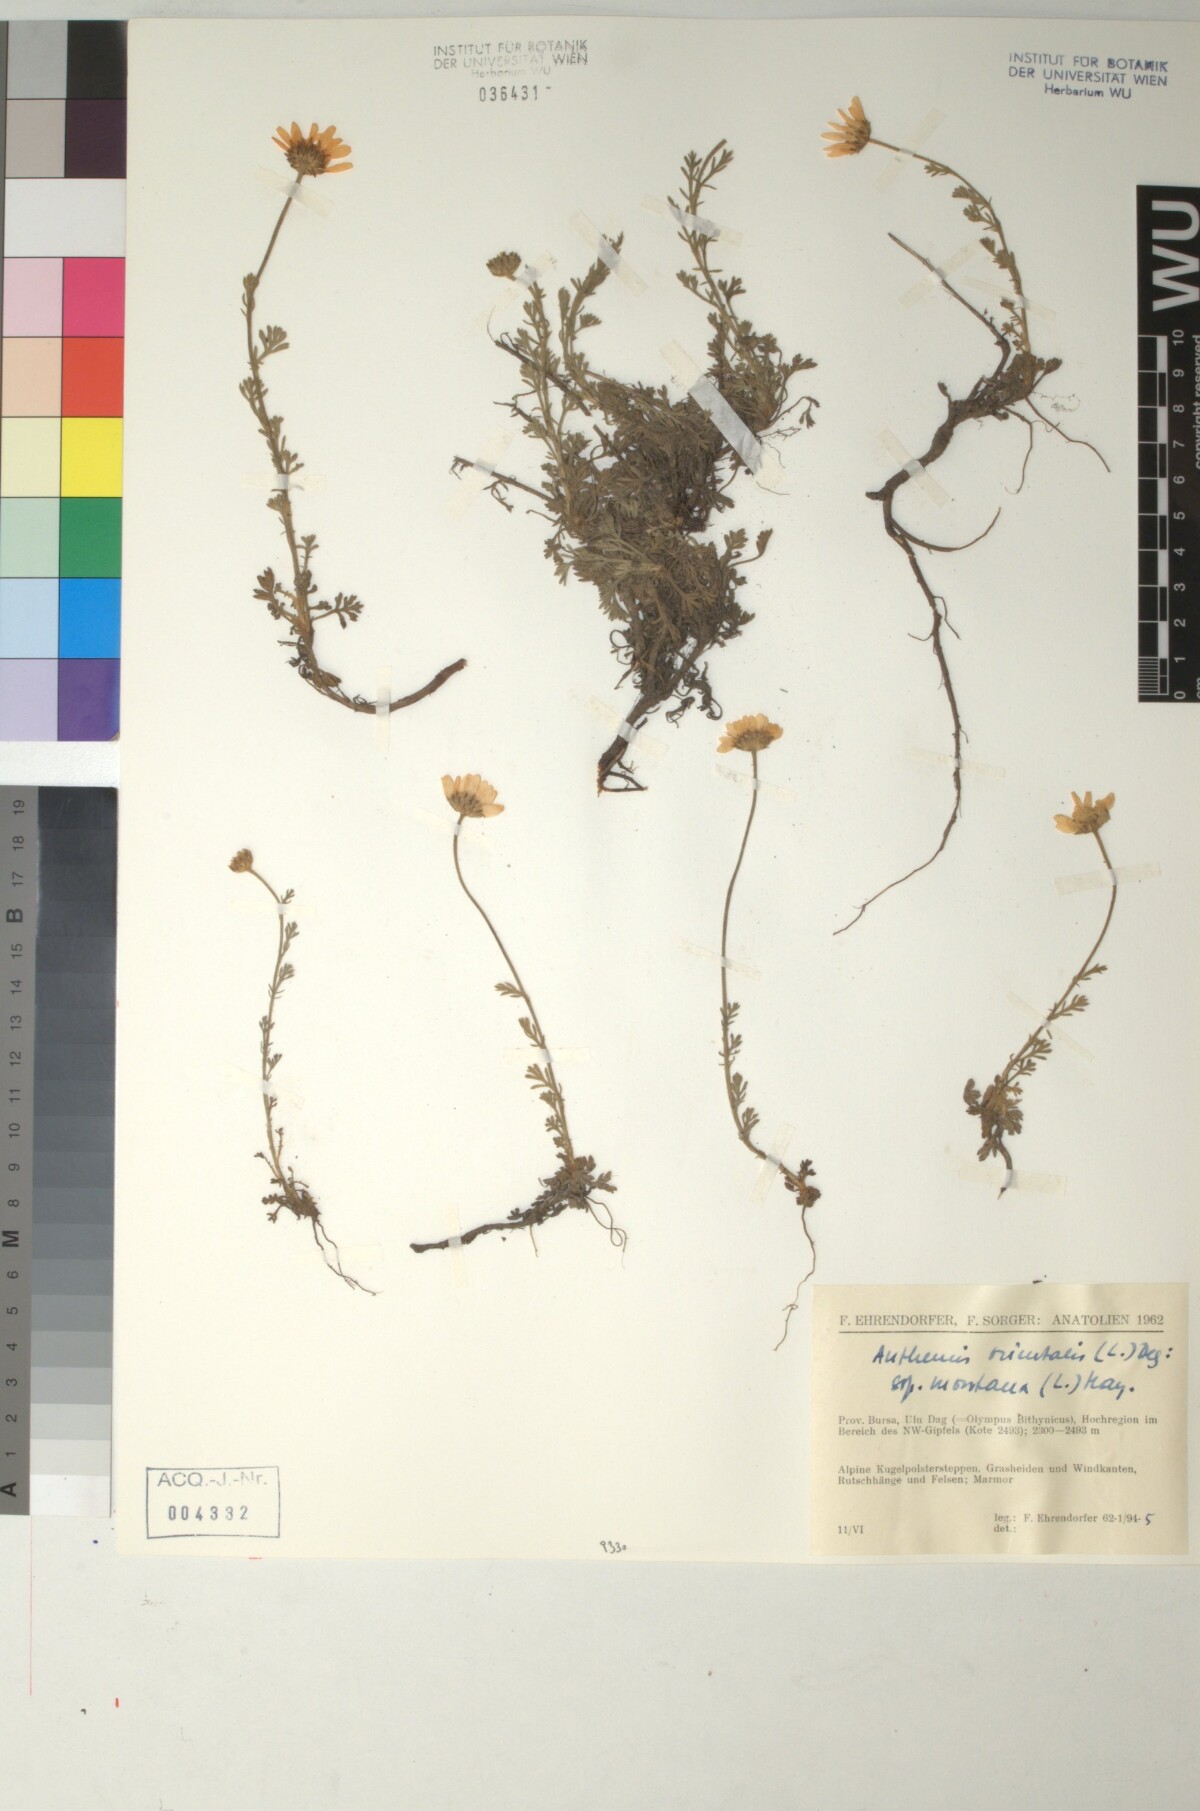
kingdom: Plantae
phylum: Tracheophyta
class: Magnoliopsida
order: Asterales
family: Asteraceae
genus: Anthemis
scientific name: Anthemis orientalis
